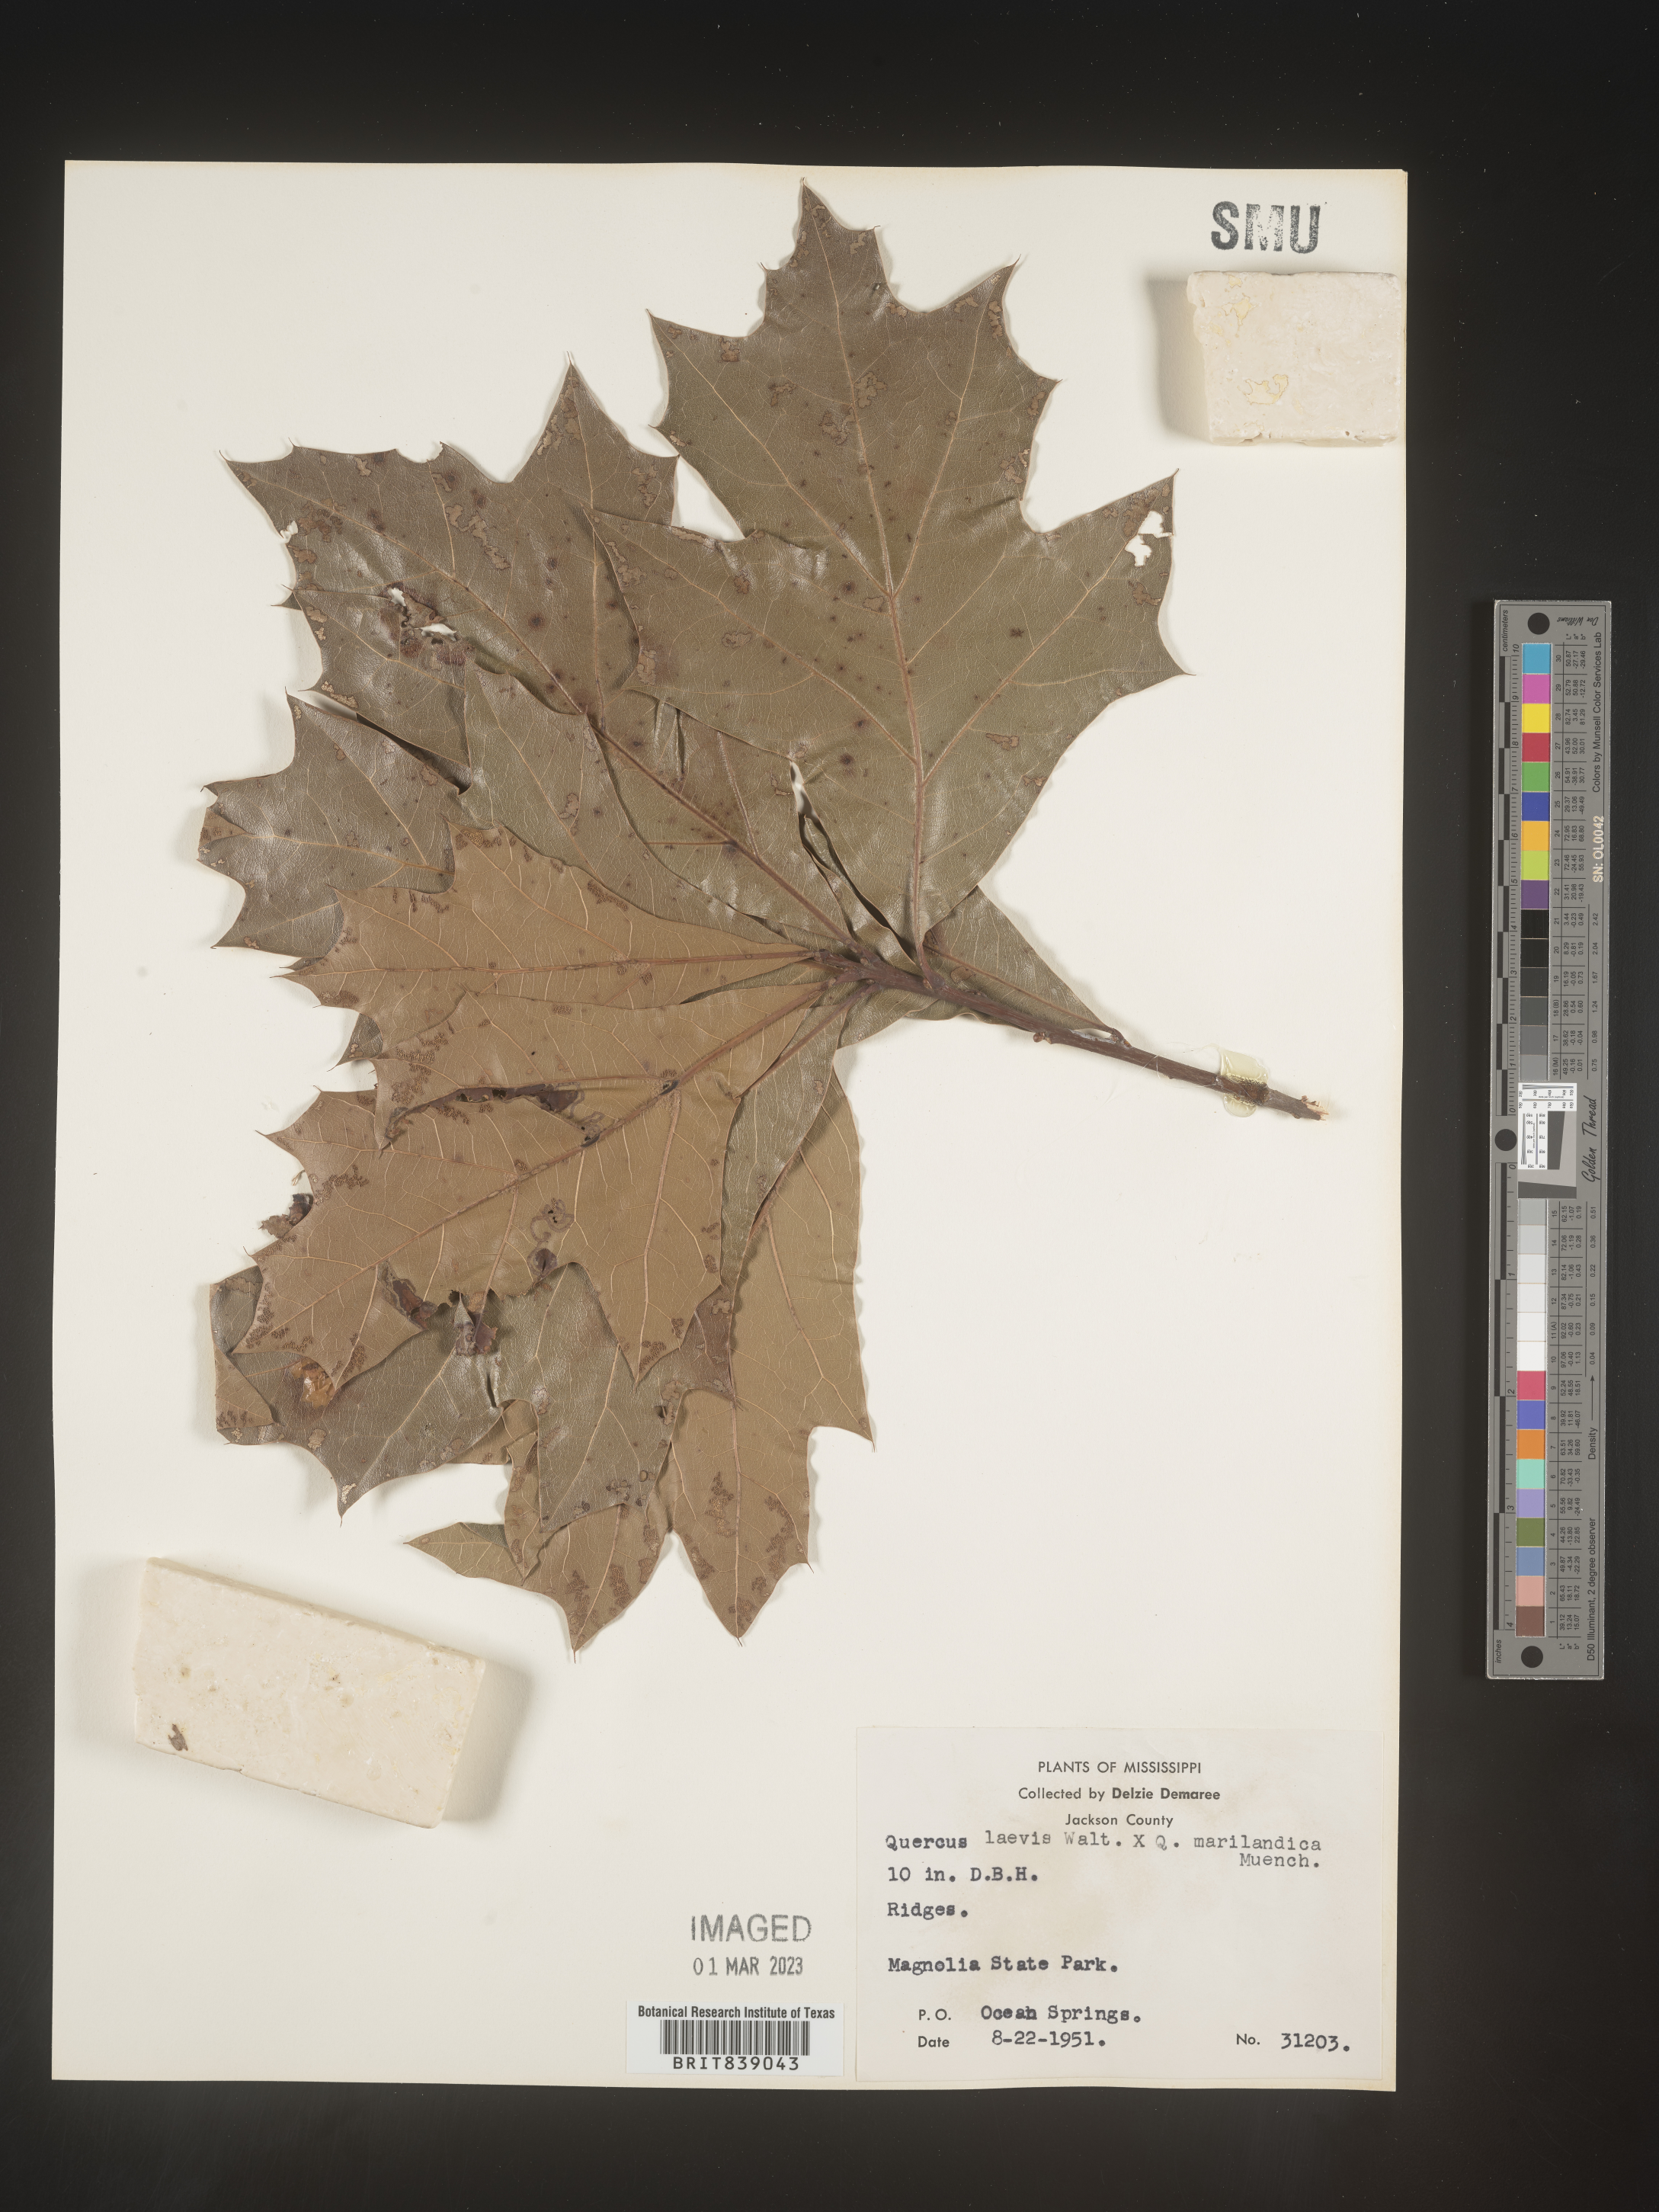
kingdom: Plantae
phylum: Tracheophyta
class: Magnoliopsida
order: Fagales
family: Fagaceae
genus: Quercus
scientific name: Quercus laevis
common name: Turkey oak
